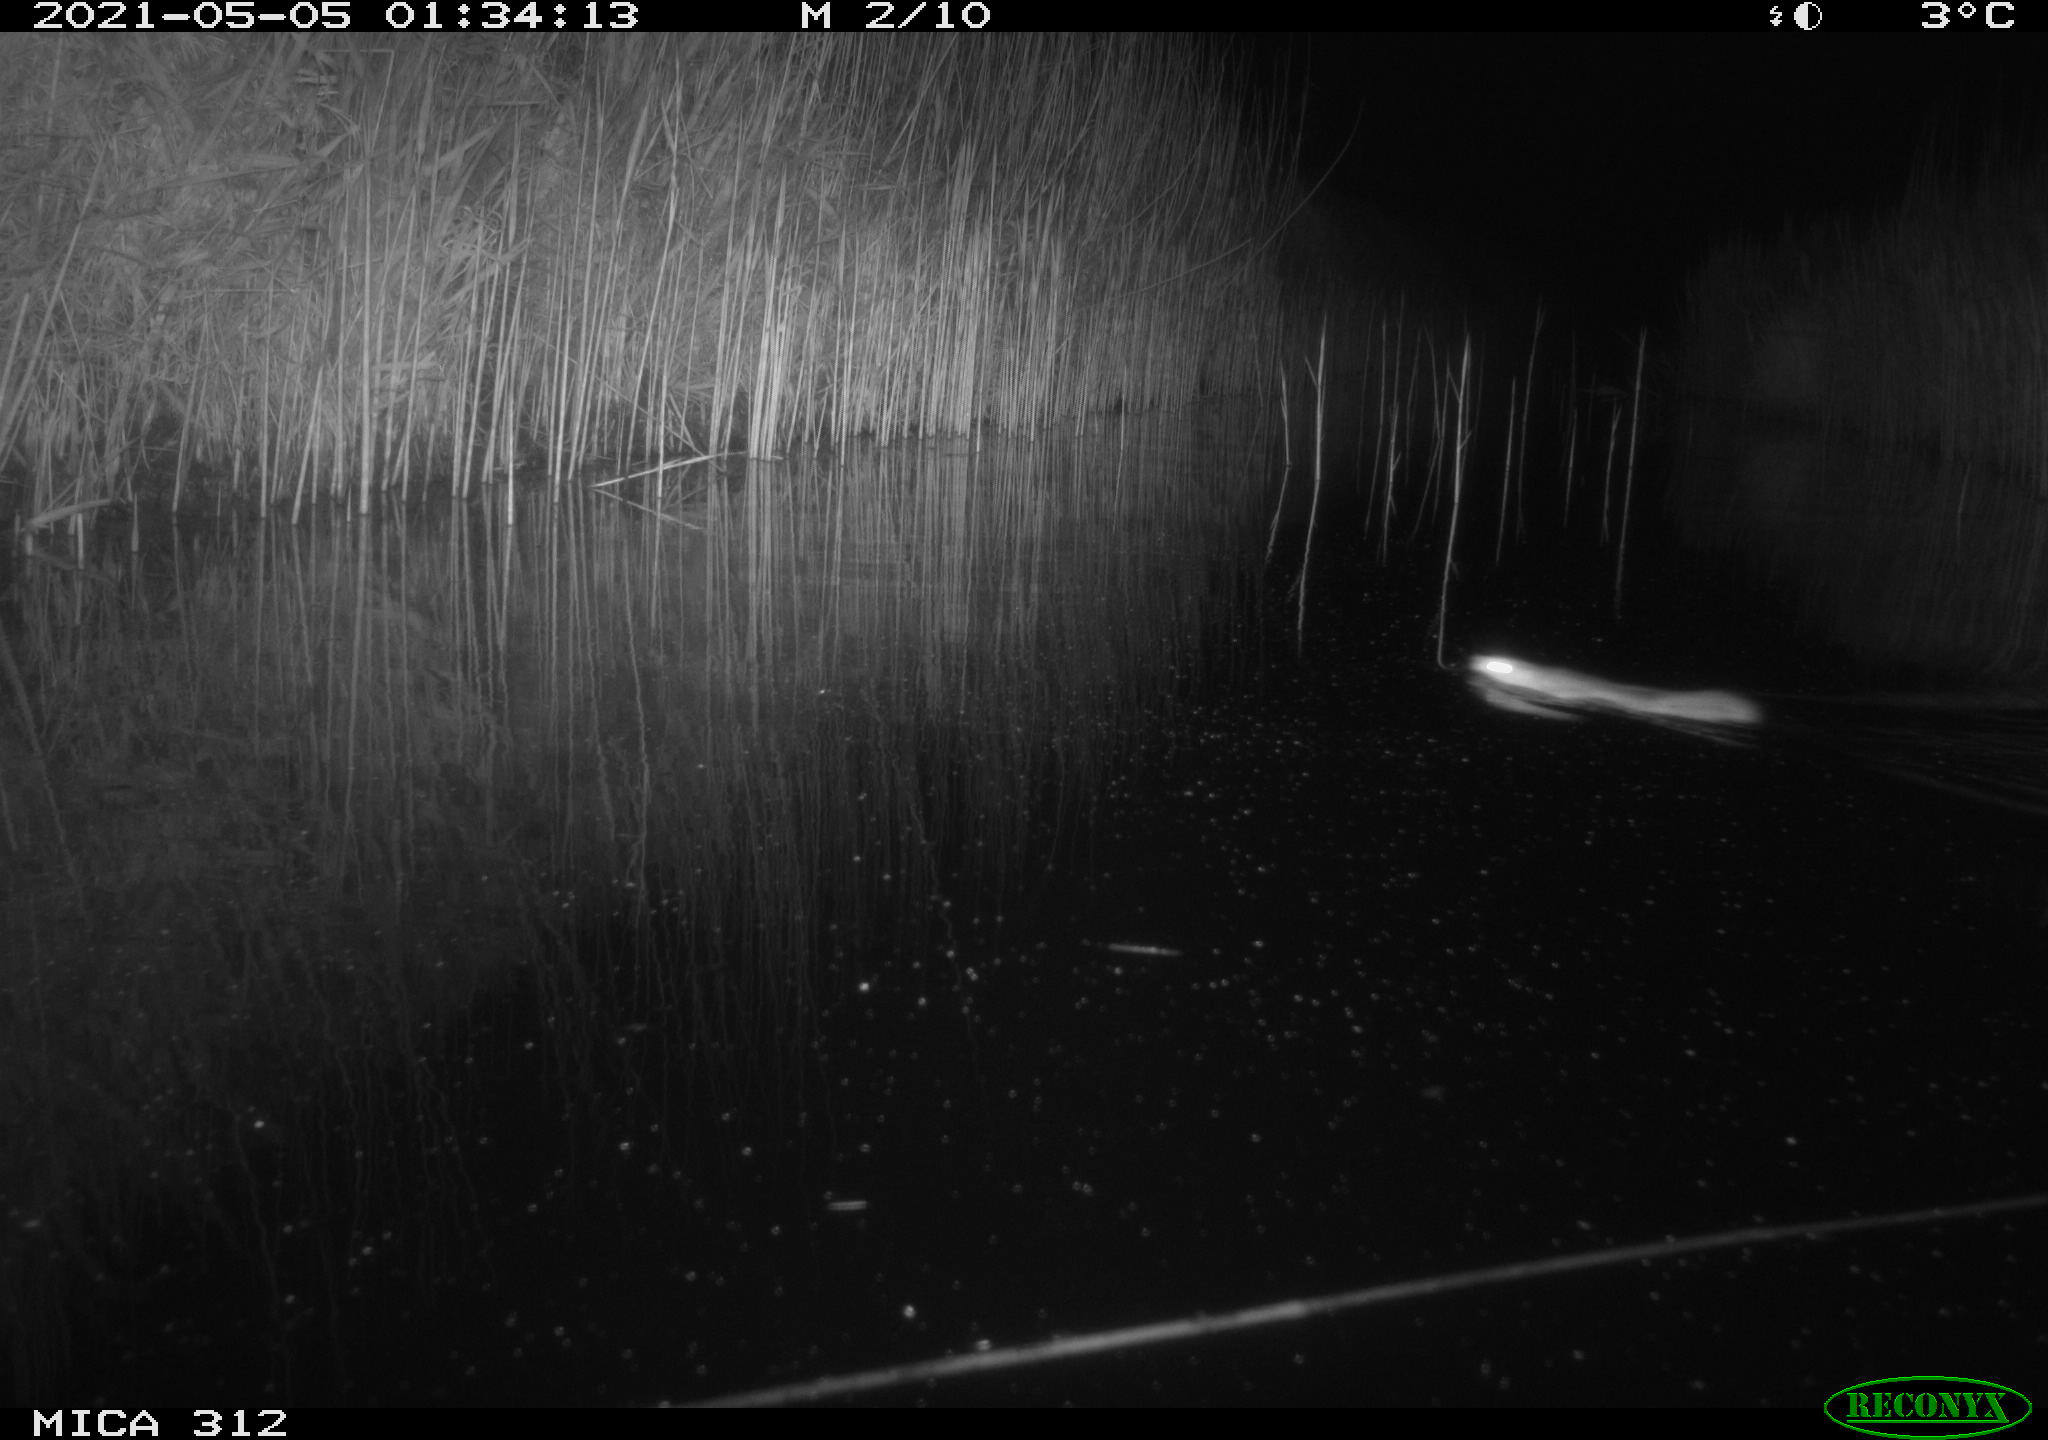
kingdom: Animalia
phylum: Chordata
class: Mammalia
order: Rodentia
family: Muridae
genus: Rattus
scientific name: Rattus norvegicus
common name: Brown rat
